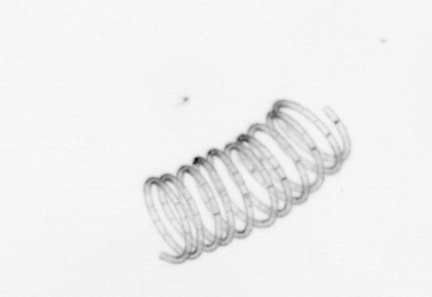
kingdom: Chromista
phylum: Ochrophyta
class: Bacillariophyceae
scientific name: Bacillariophyceae
